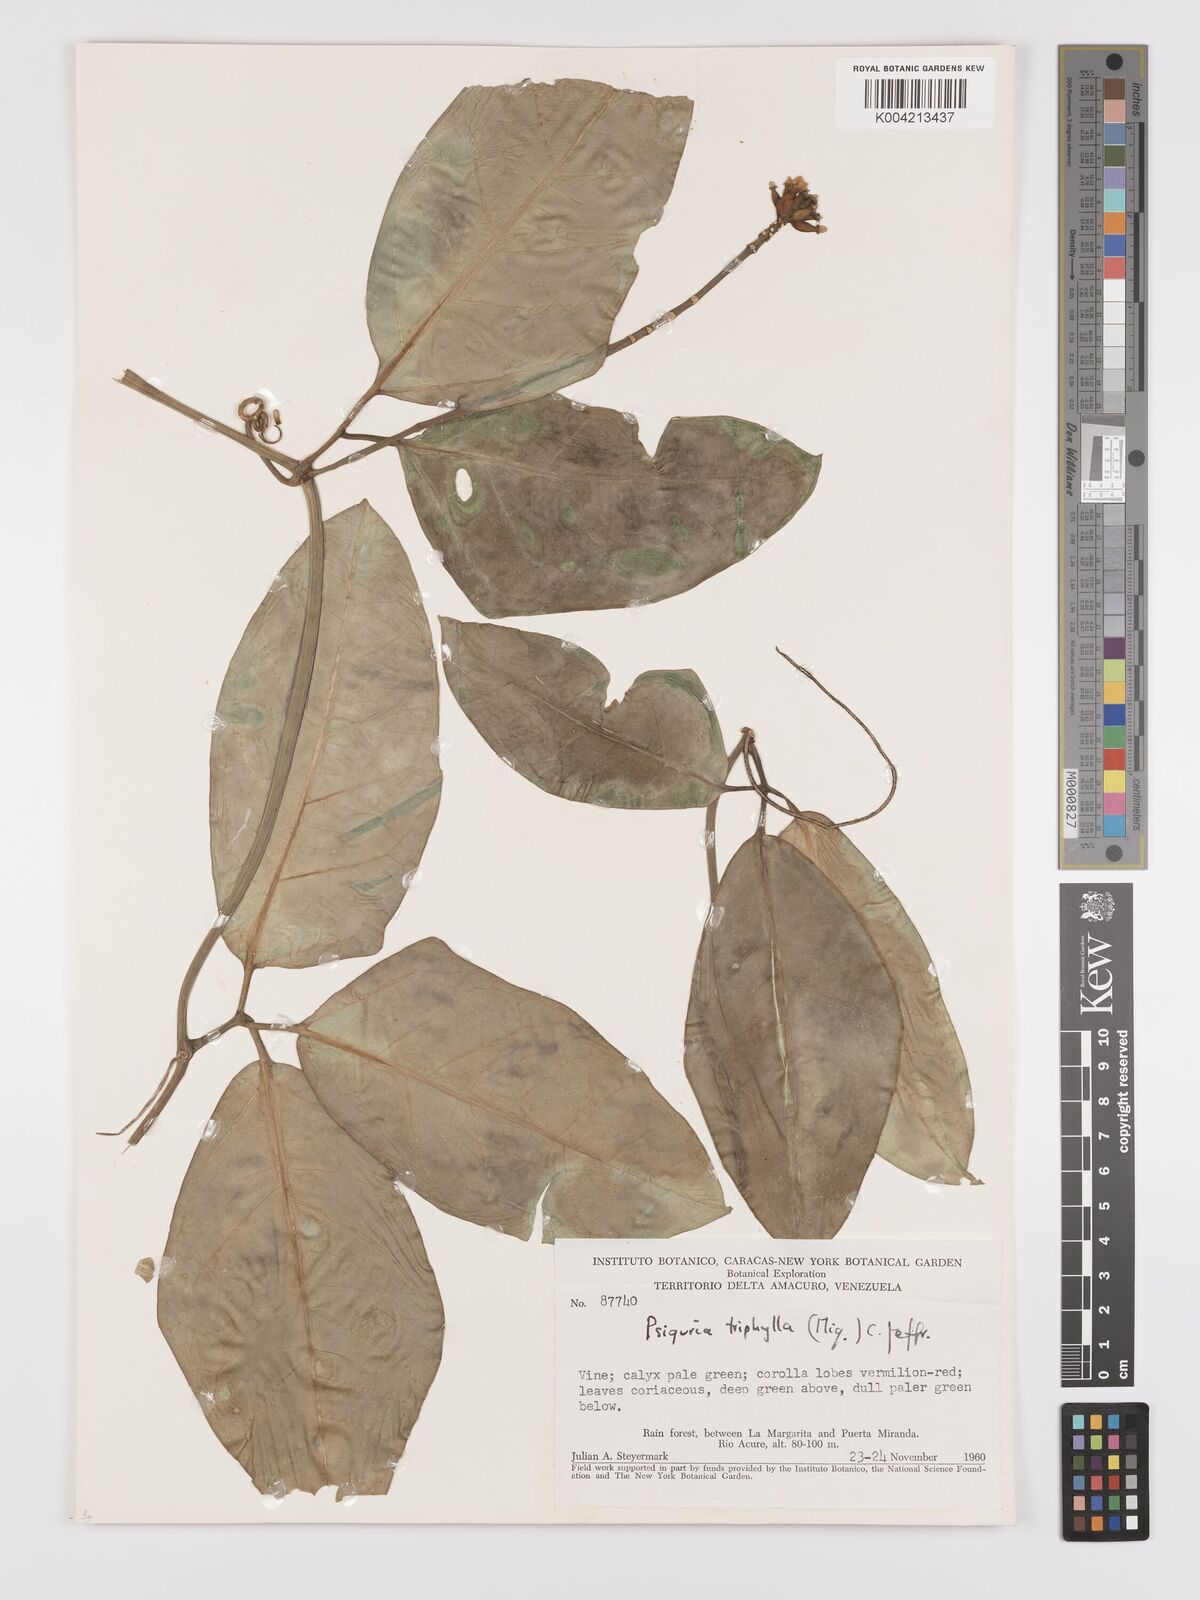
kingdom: Plantae
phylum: Tracheophyta
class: Magnoliopsida
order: Cucurbitales
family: Cucurbitaceae
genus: Psiguria
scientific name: Psiguria triphylla
